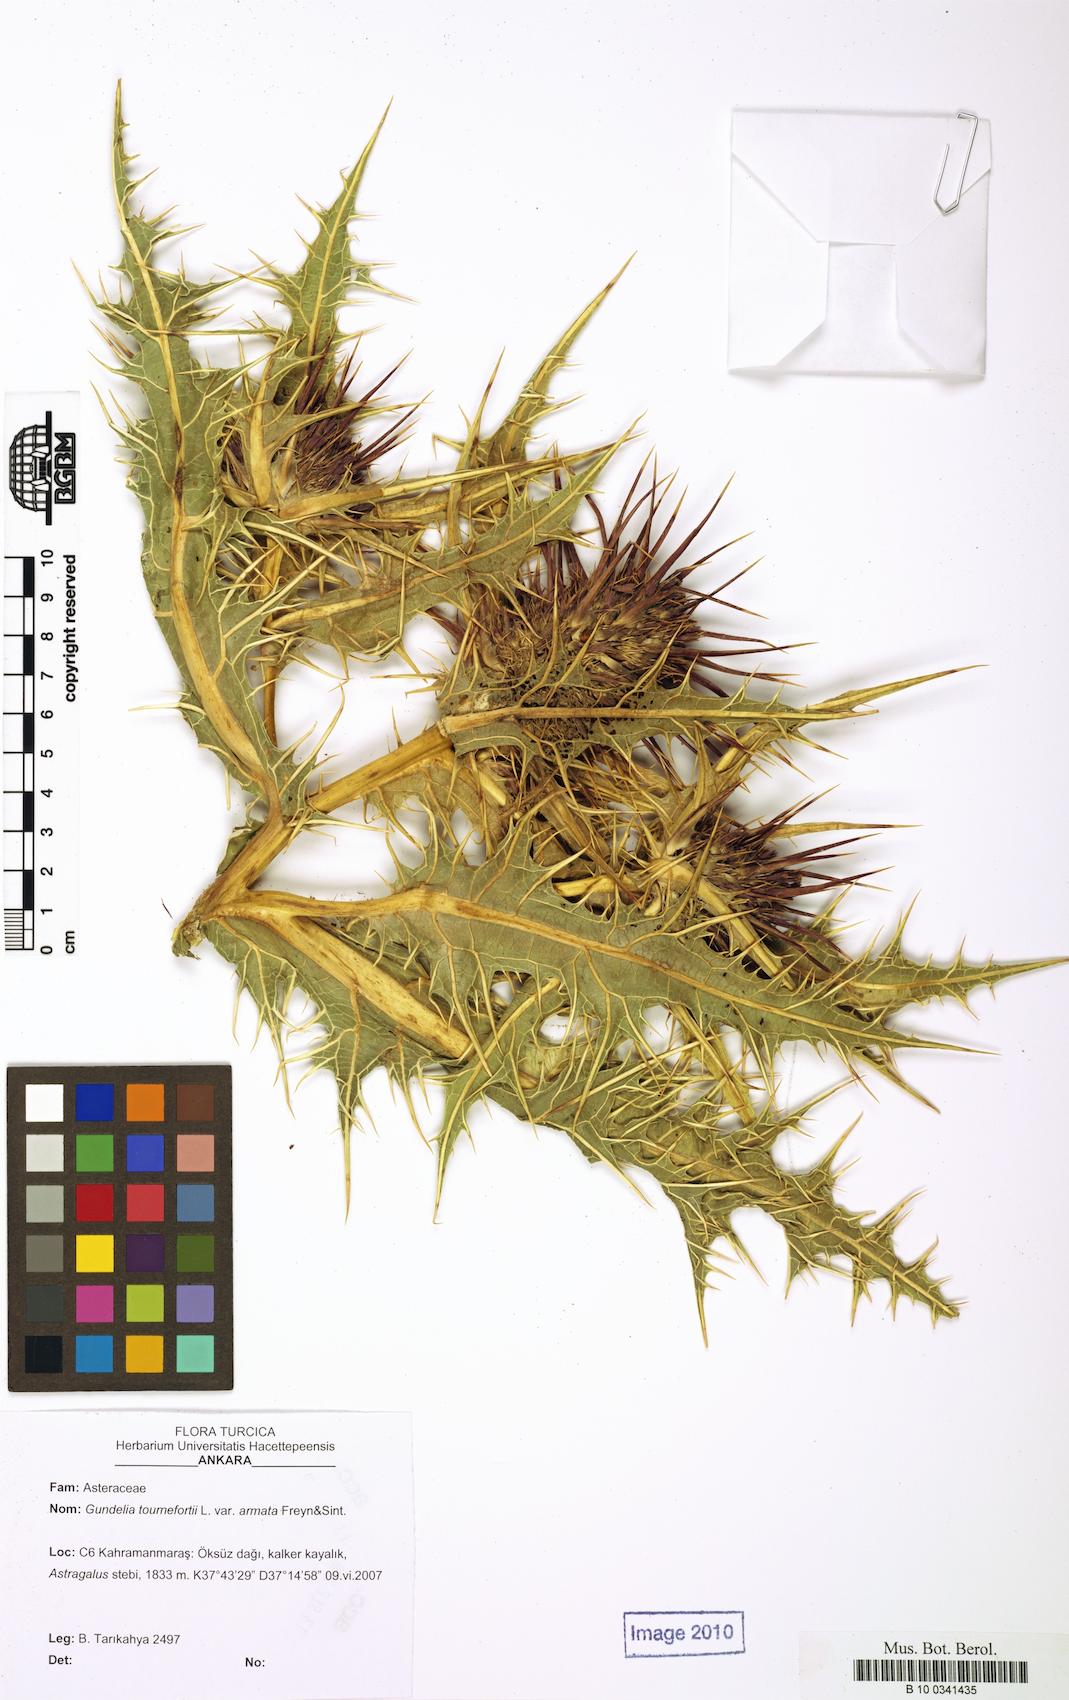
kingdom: Plantae
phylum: Tracheophyta
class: Magnoliopsida
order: Asterales
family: Asteraceae
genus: Gundelia
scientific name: Gundelia dersim
